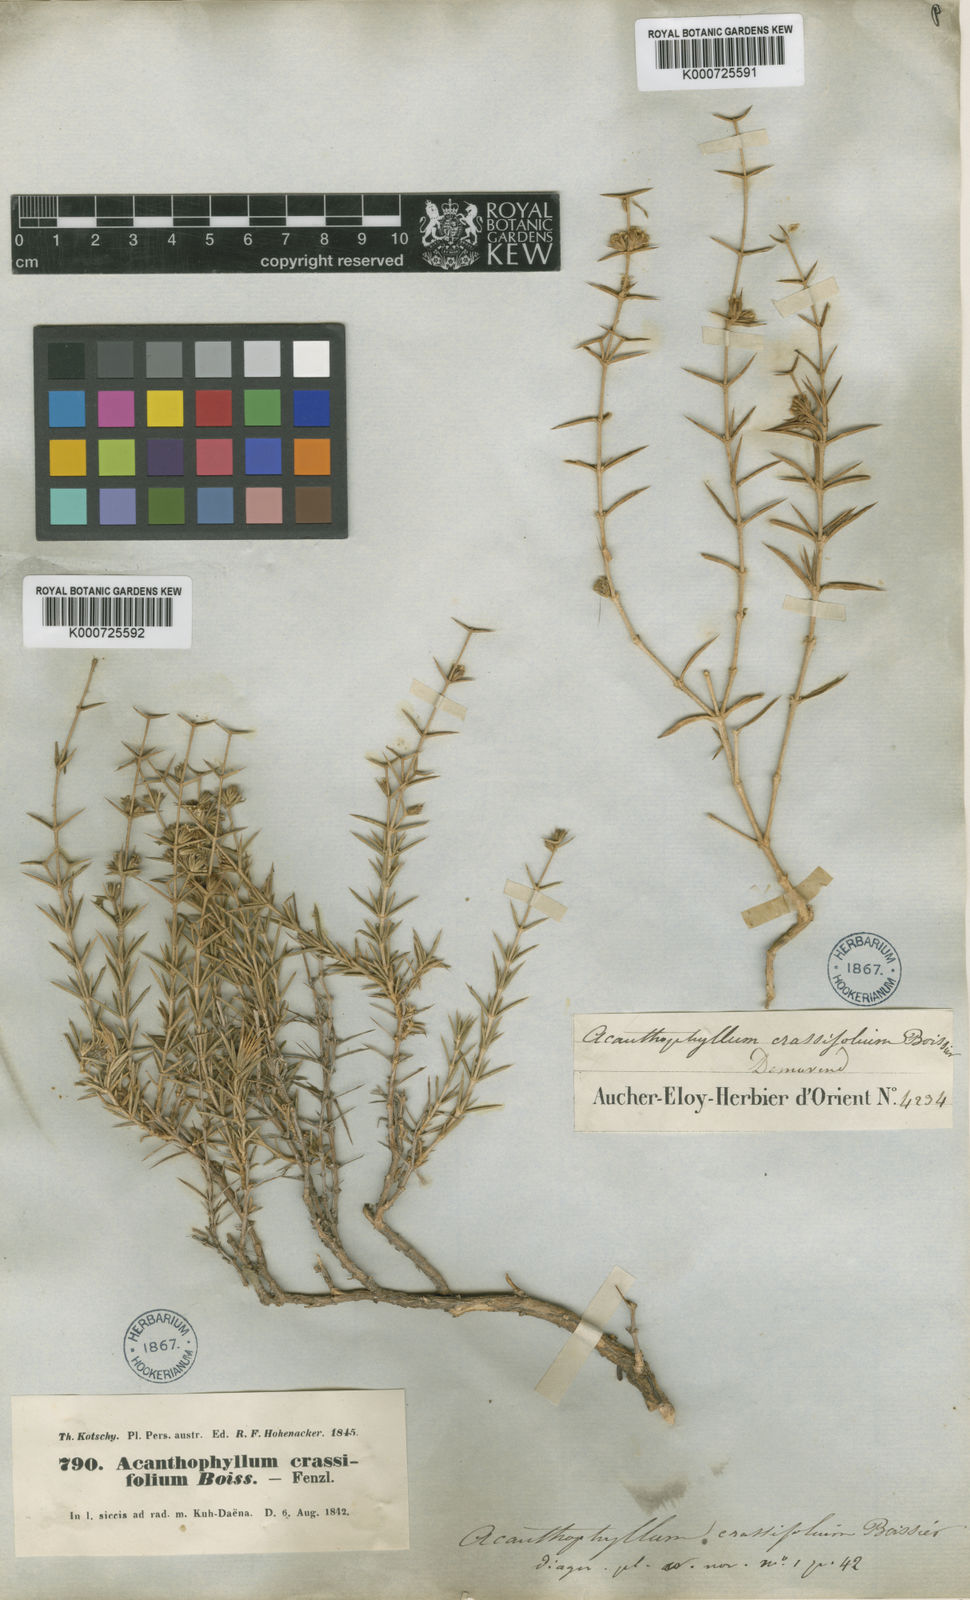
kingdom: Plantae
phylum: Tracheophyta
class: Magnoliopsida
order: Caryophyllales
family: Caryophyllaceae
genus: Acanthophyllum
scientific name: Acanthophyllum crassifolium
